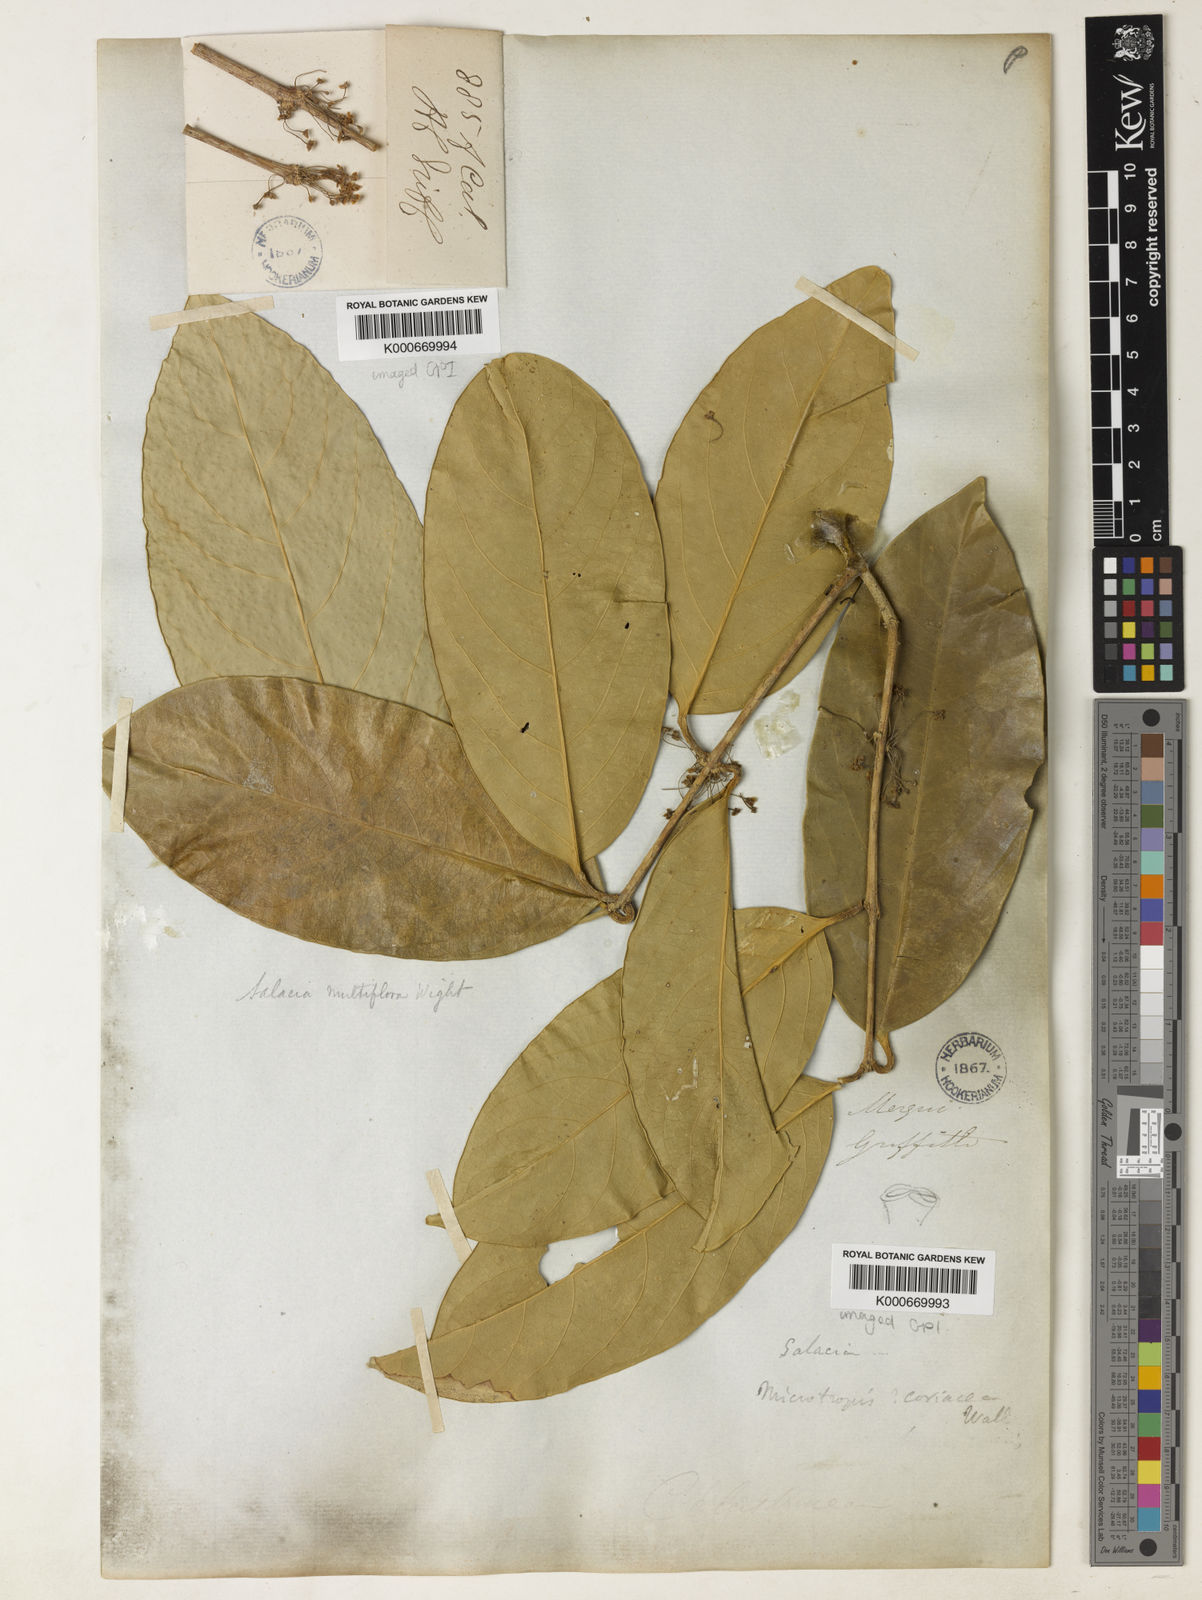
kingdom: Plantae
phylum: Tracheophyta
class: Magnoliopsida
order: Celastrales
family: Celastraceae
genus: Salacia
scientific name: Salacia polyantha
